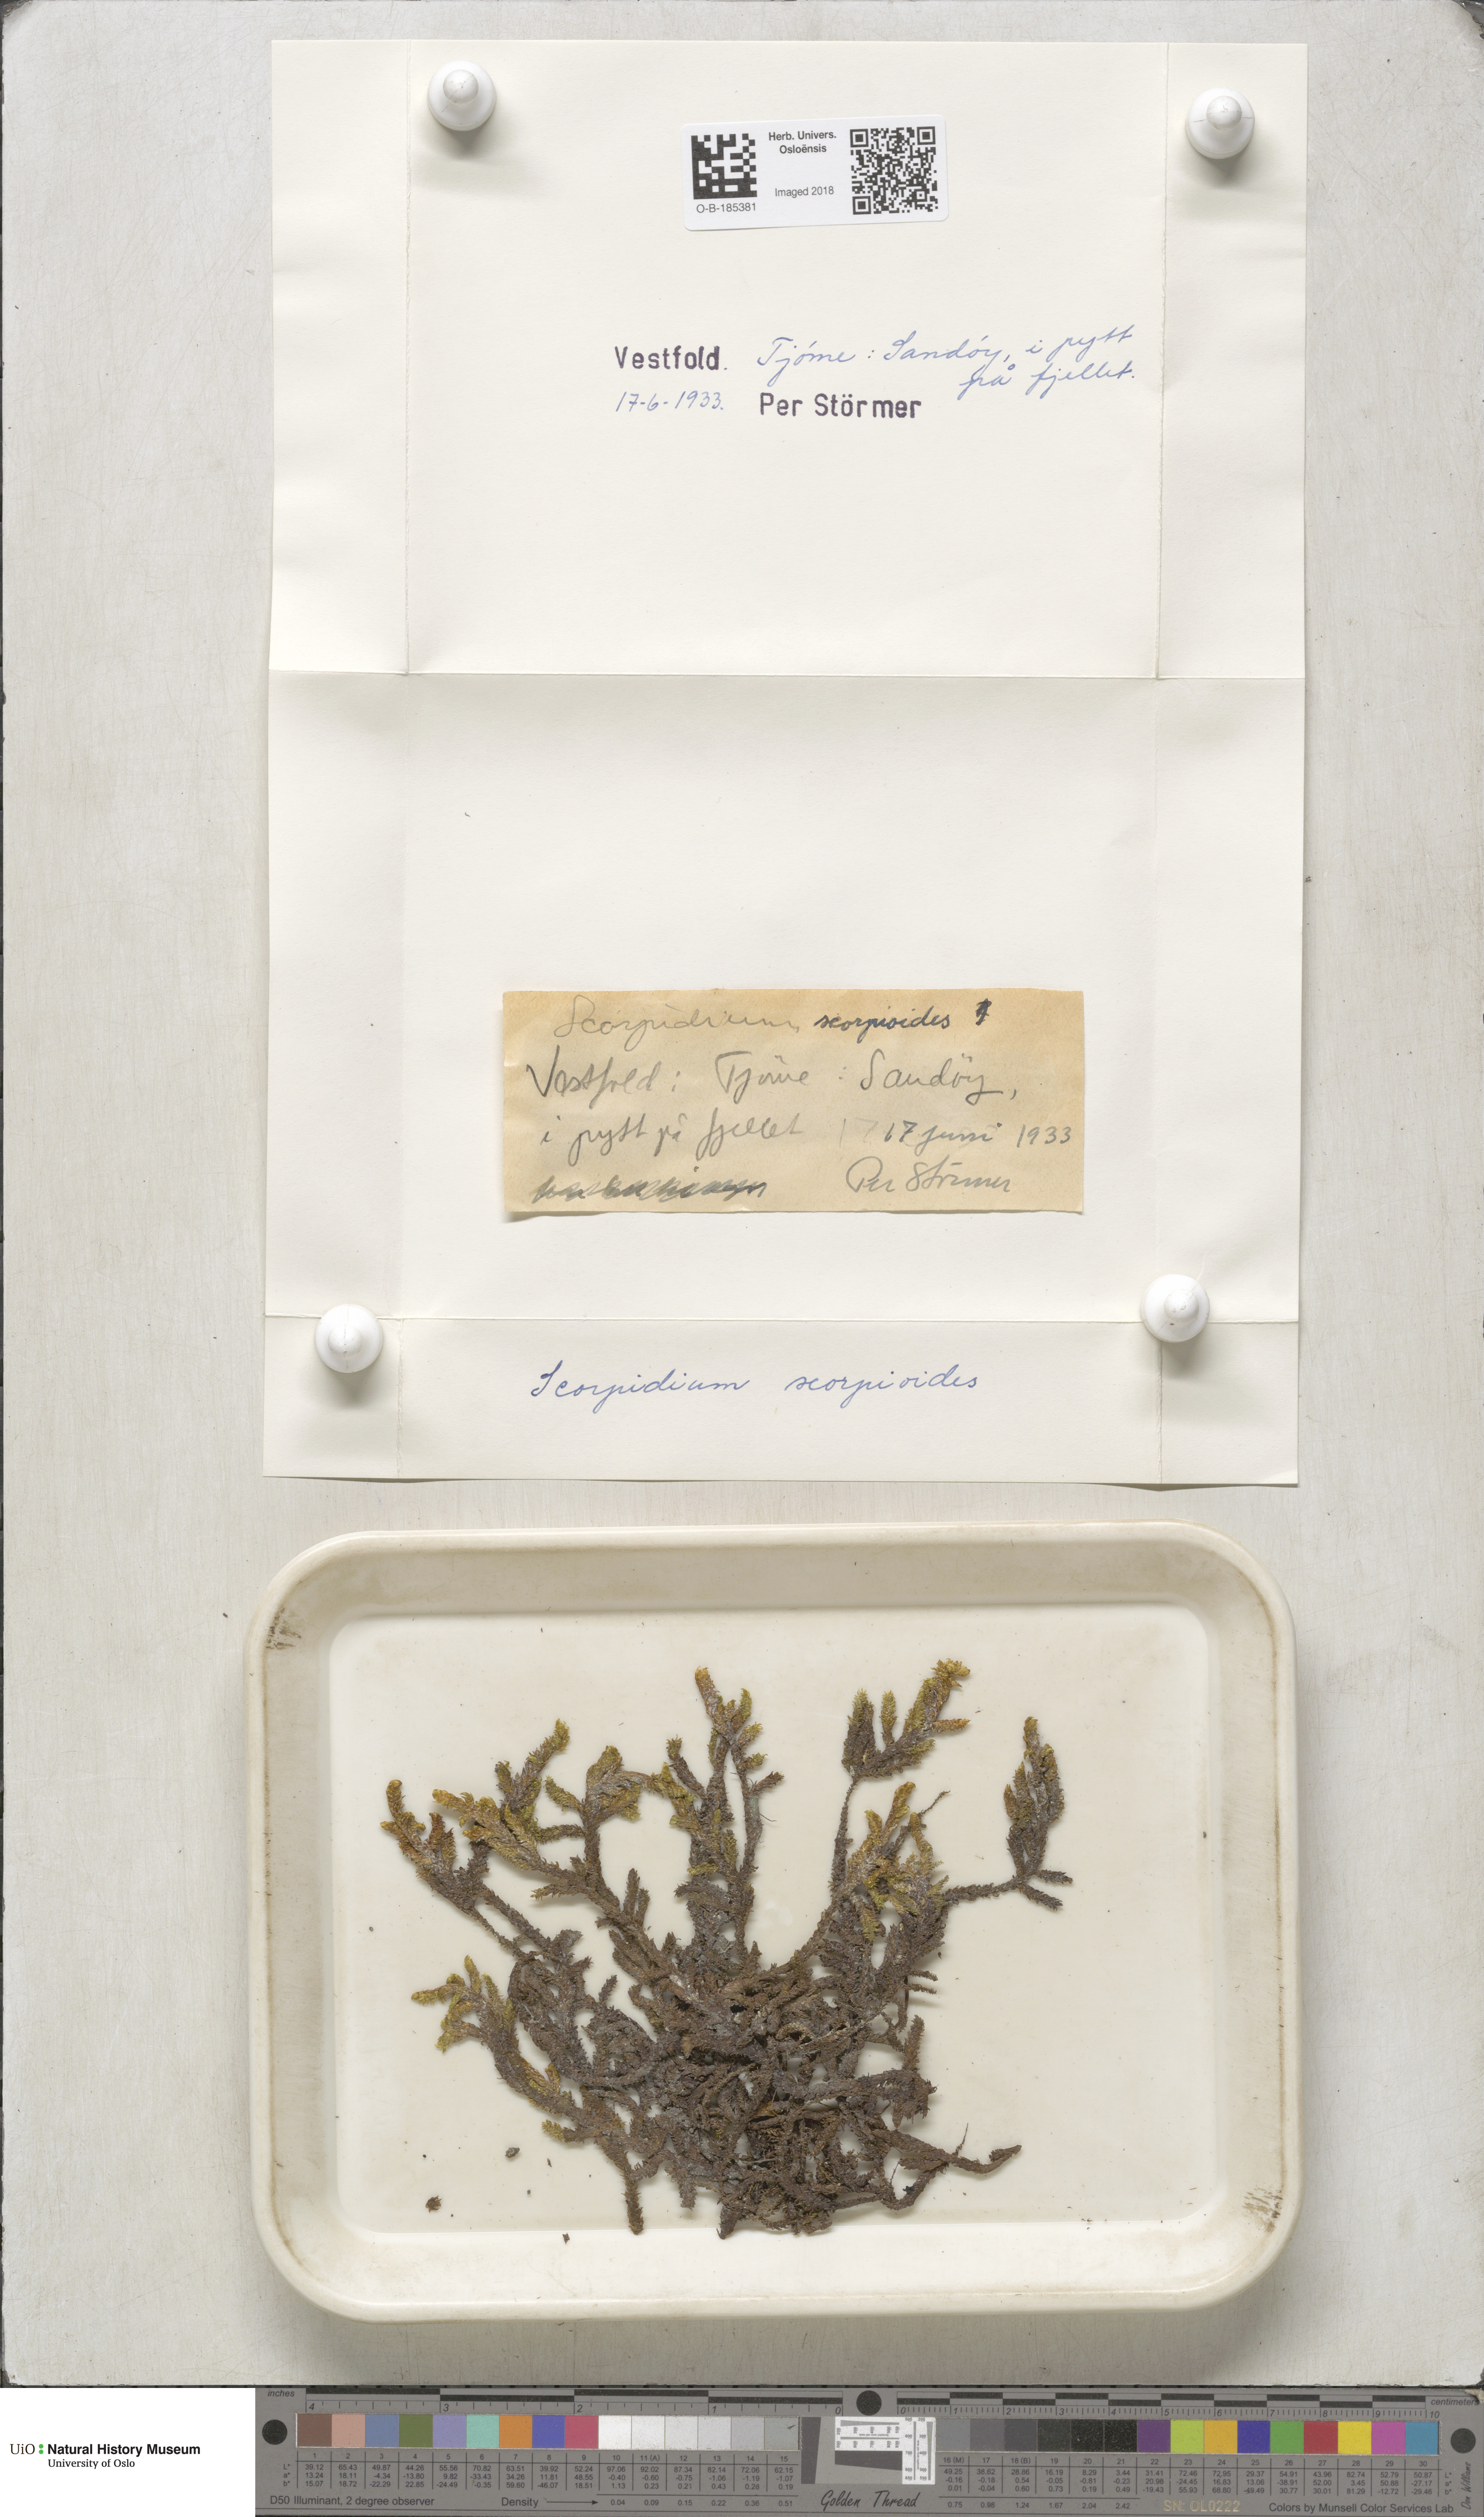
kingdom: Plantae
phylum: Bryophyta
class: Bryopsida
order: Hypnales
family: Scorpidiaceae
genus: Scorpidium
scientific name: Scorpidium scorpioides
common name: Hooked scorpion moss
